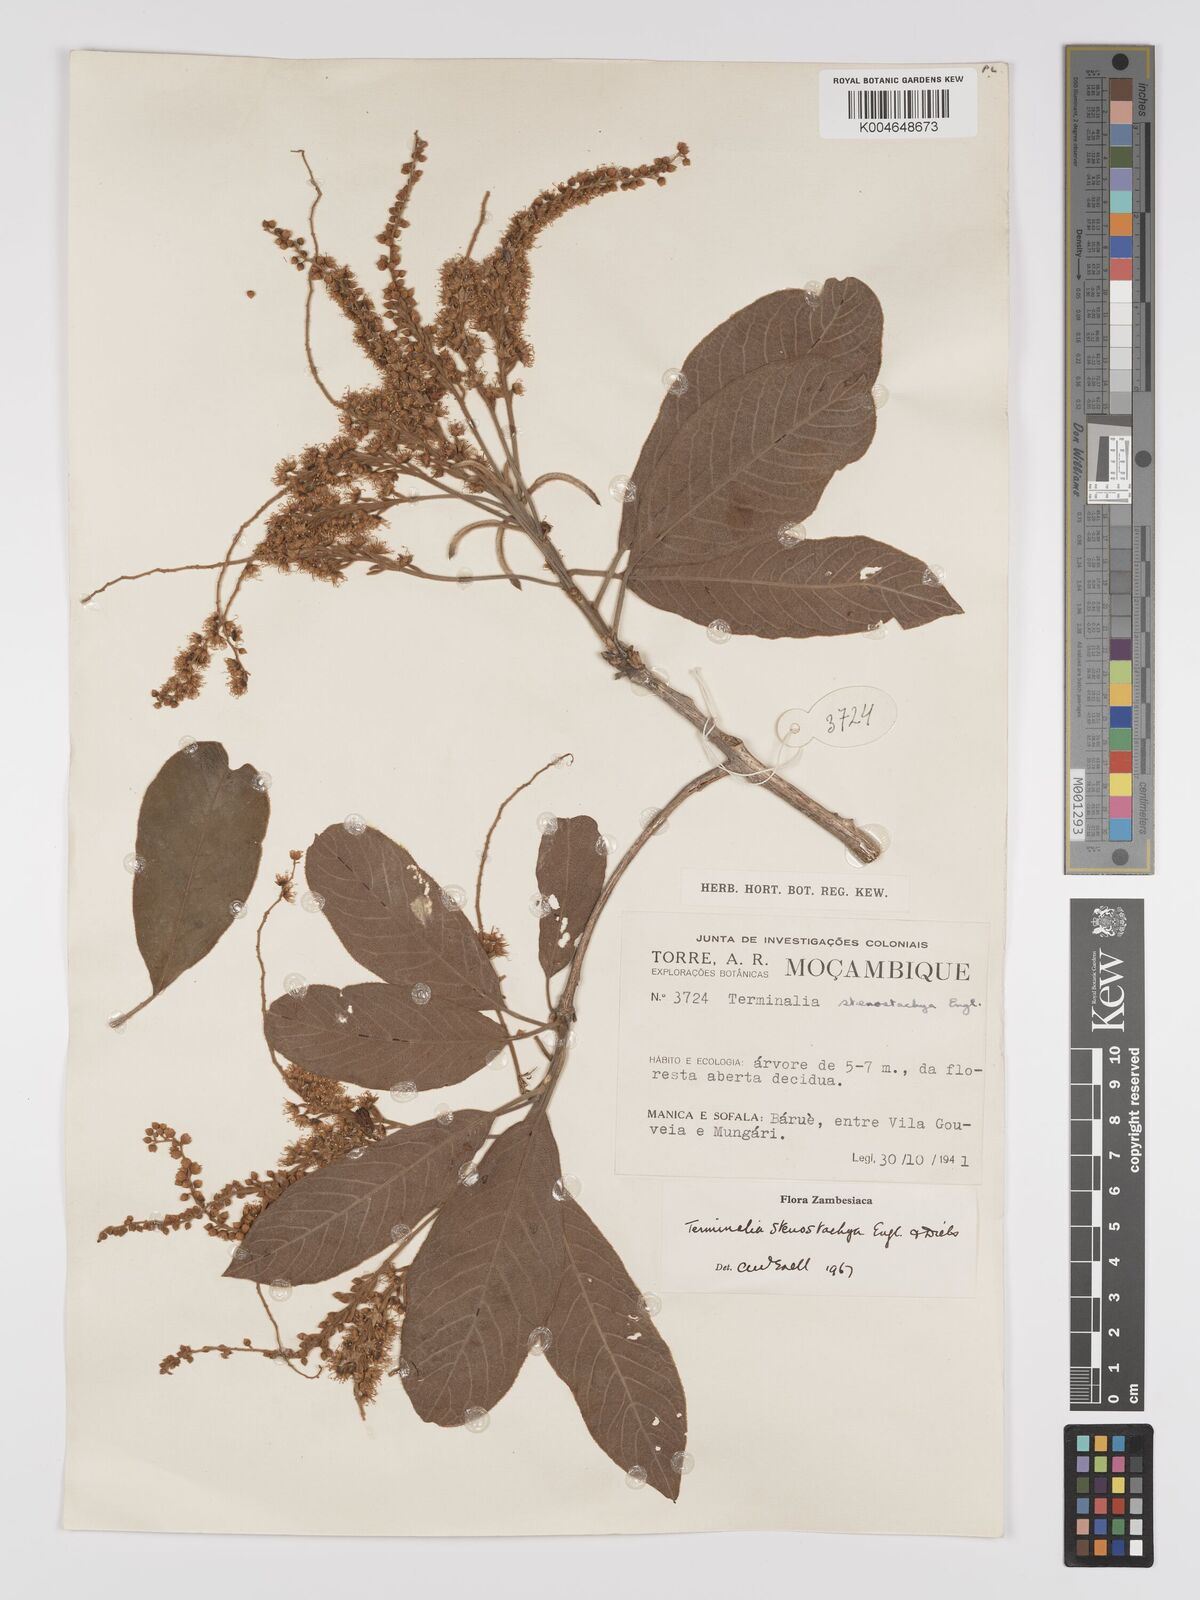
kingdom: Plantae
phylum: Tracheophyta
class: Magnoliopsida
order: Myrtales
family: Combretaceae
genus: Terminalia
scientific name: Terminalia stenostachya
